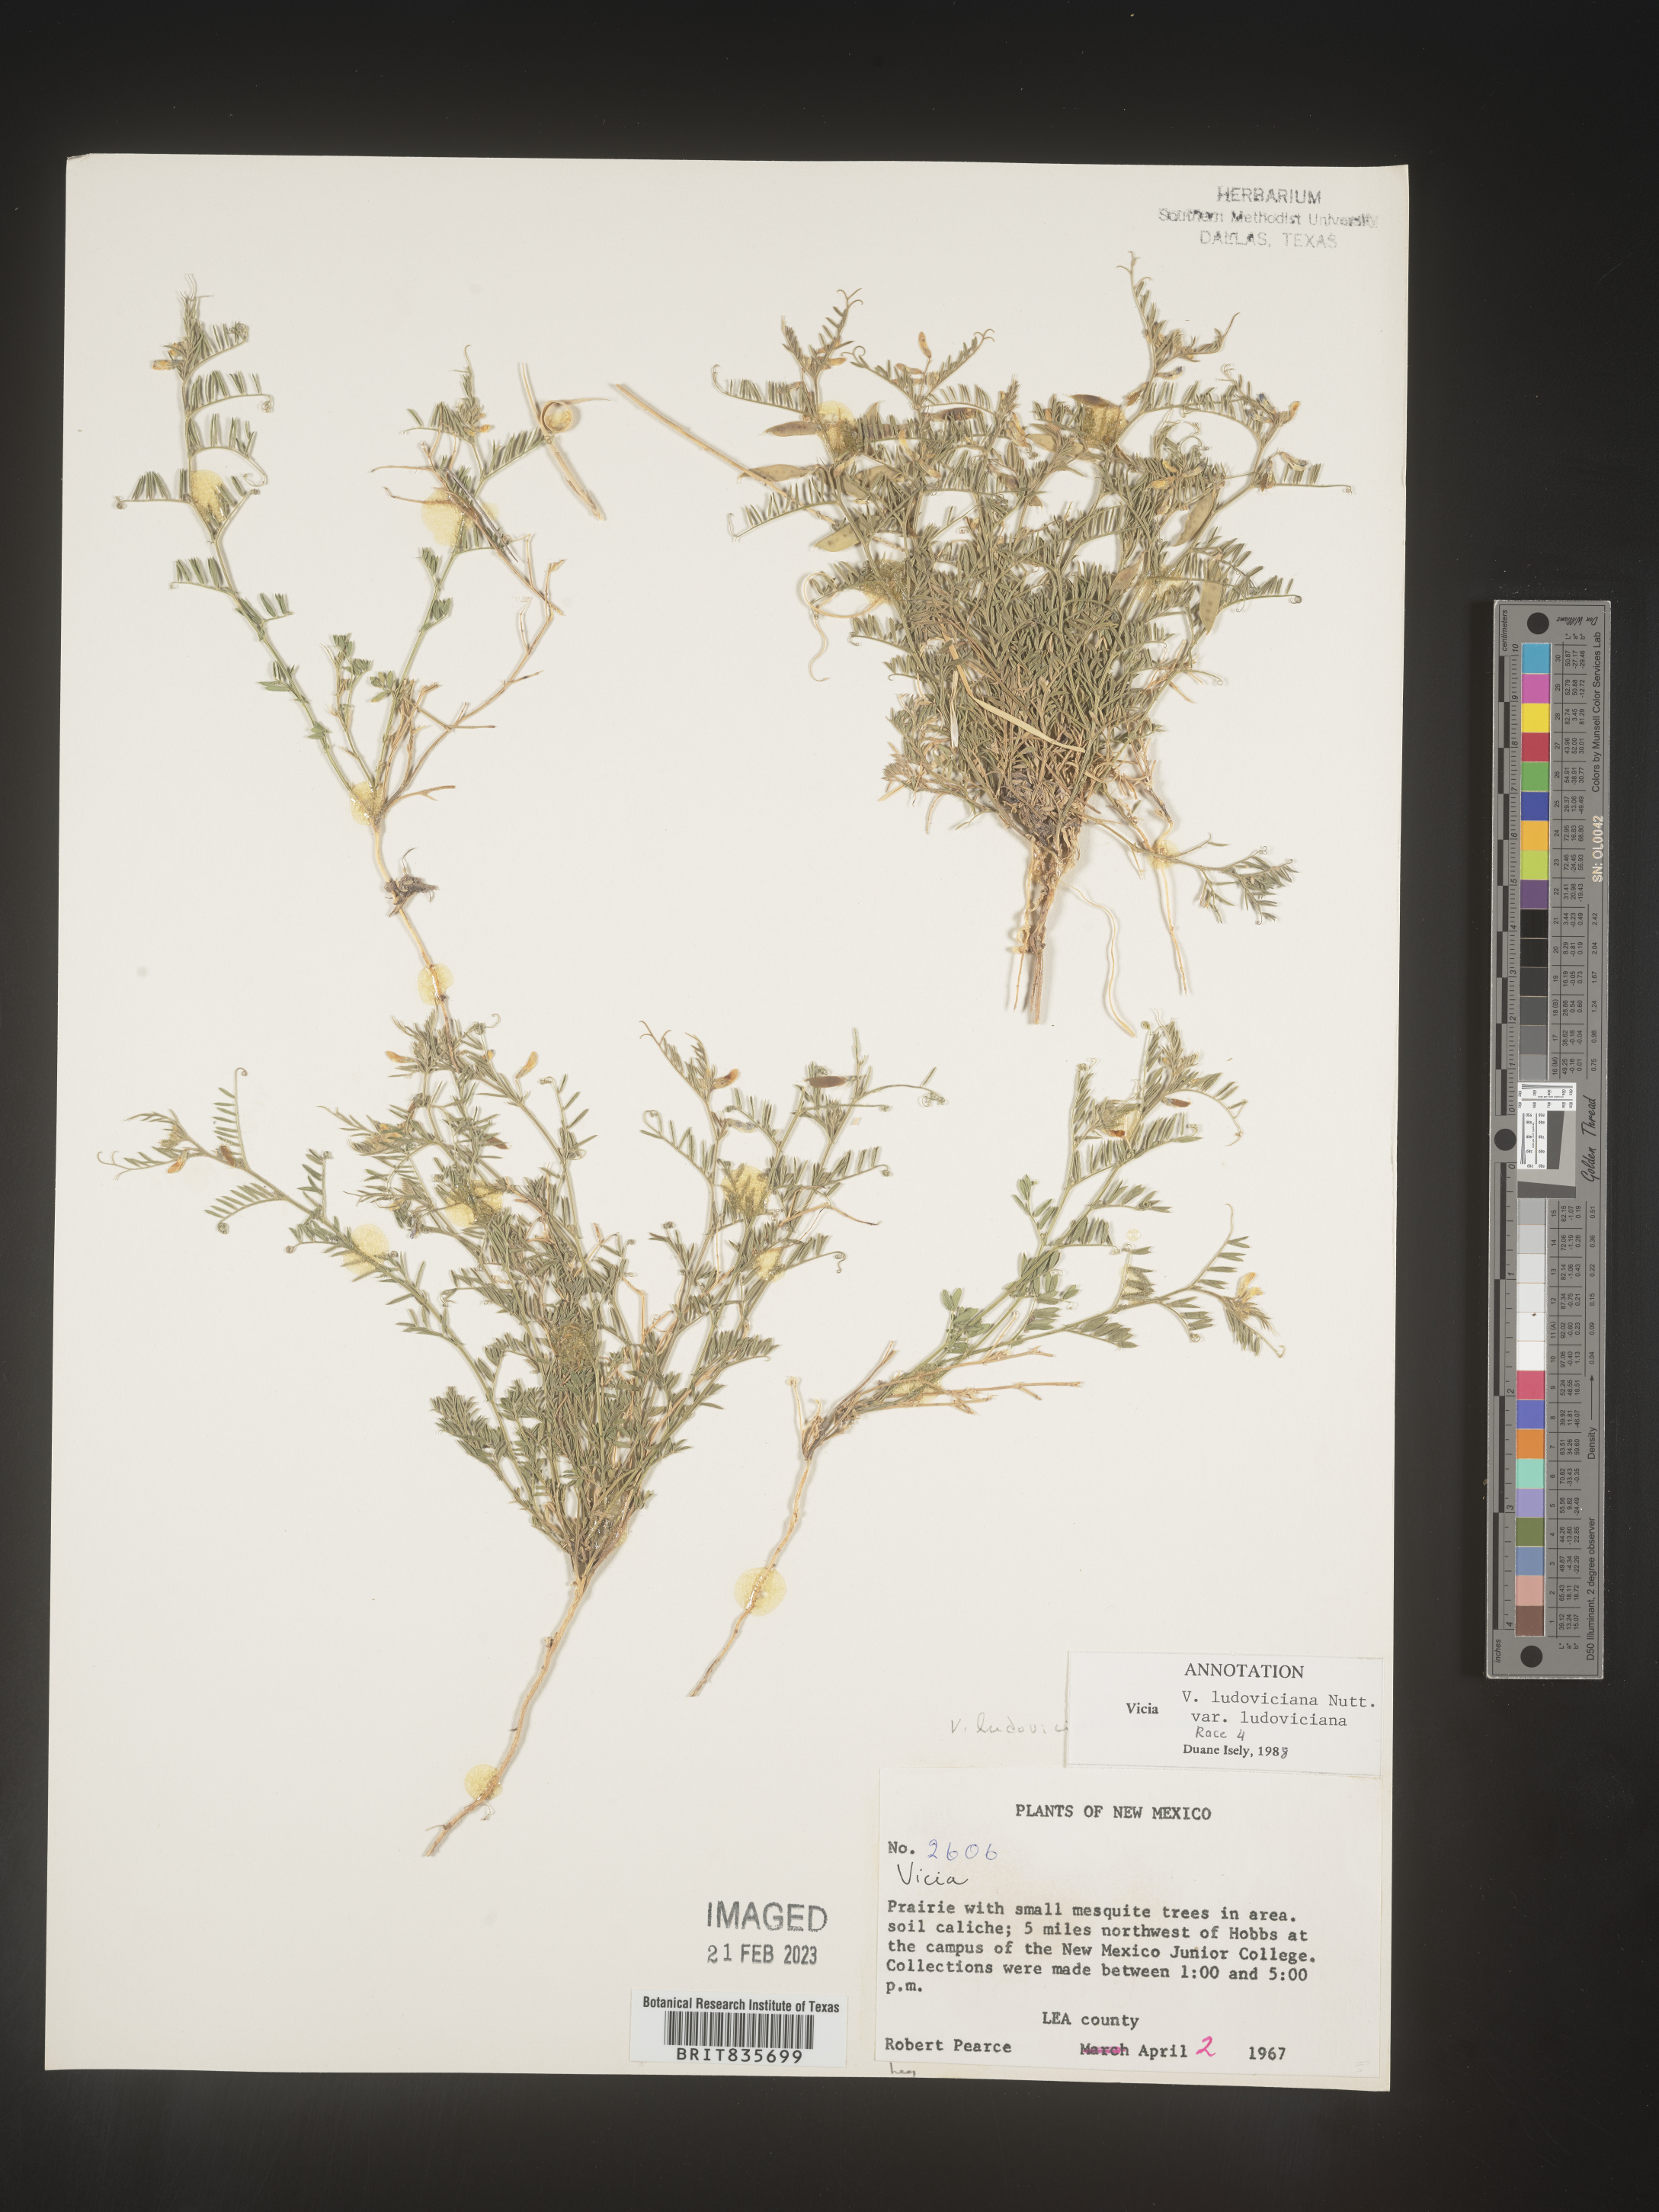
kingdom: Plantae
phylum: Tracheophyta
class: Magnoliopsida
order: Fabales
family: Fabaceae
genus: Vicia
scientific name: Vicia ludoviciana
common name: Louisiana vetch
